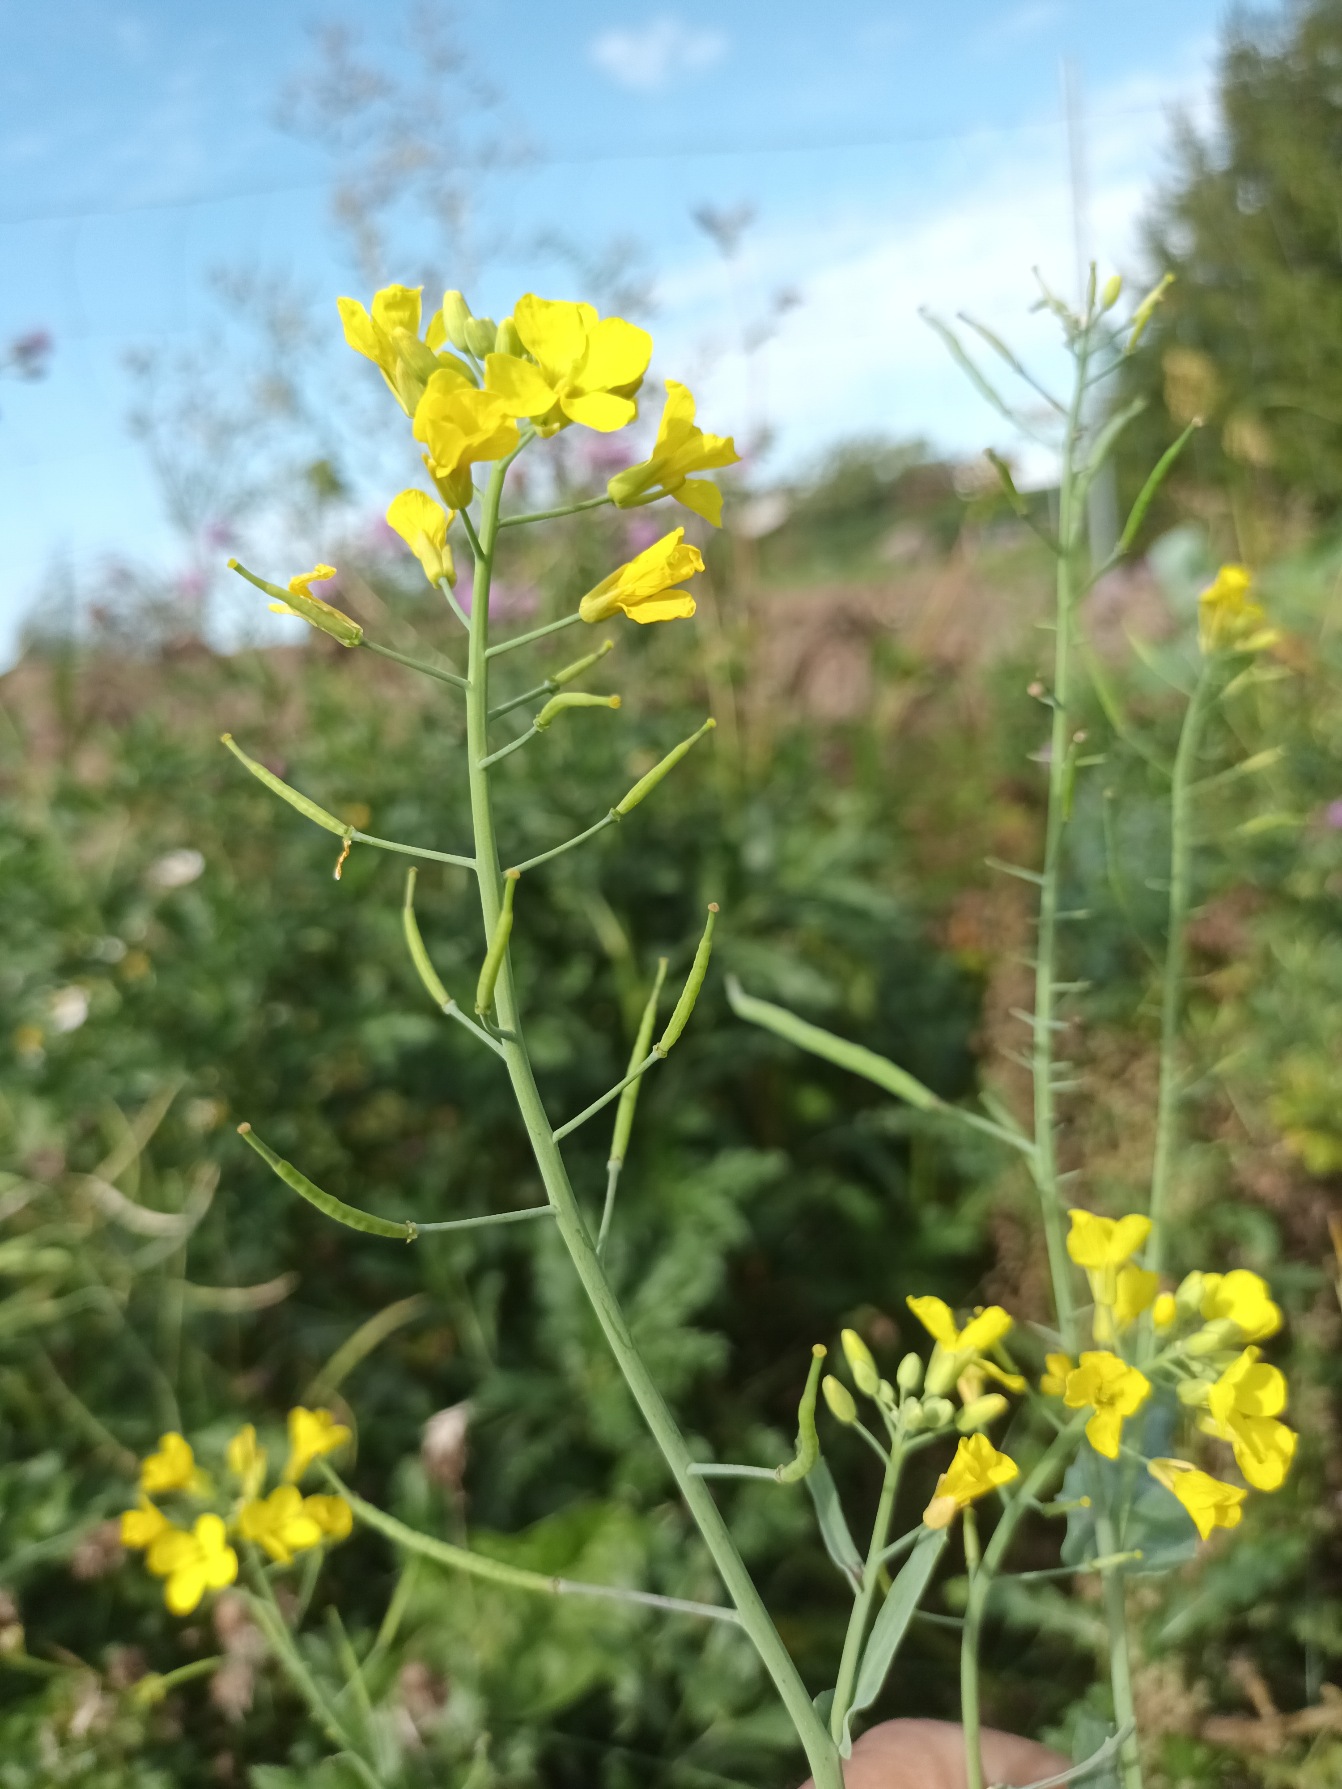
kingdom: Plantae
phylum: Tracheophyta
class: Magnoliopsida
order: Brassicales
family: Brassicaceae
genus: Brassica
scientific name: Brassica rapa
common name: Ager-kål
